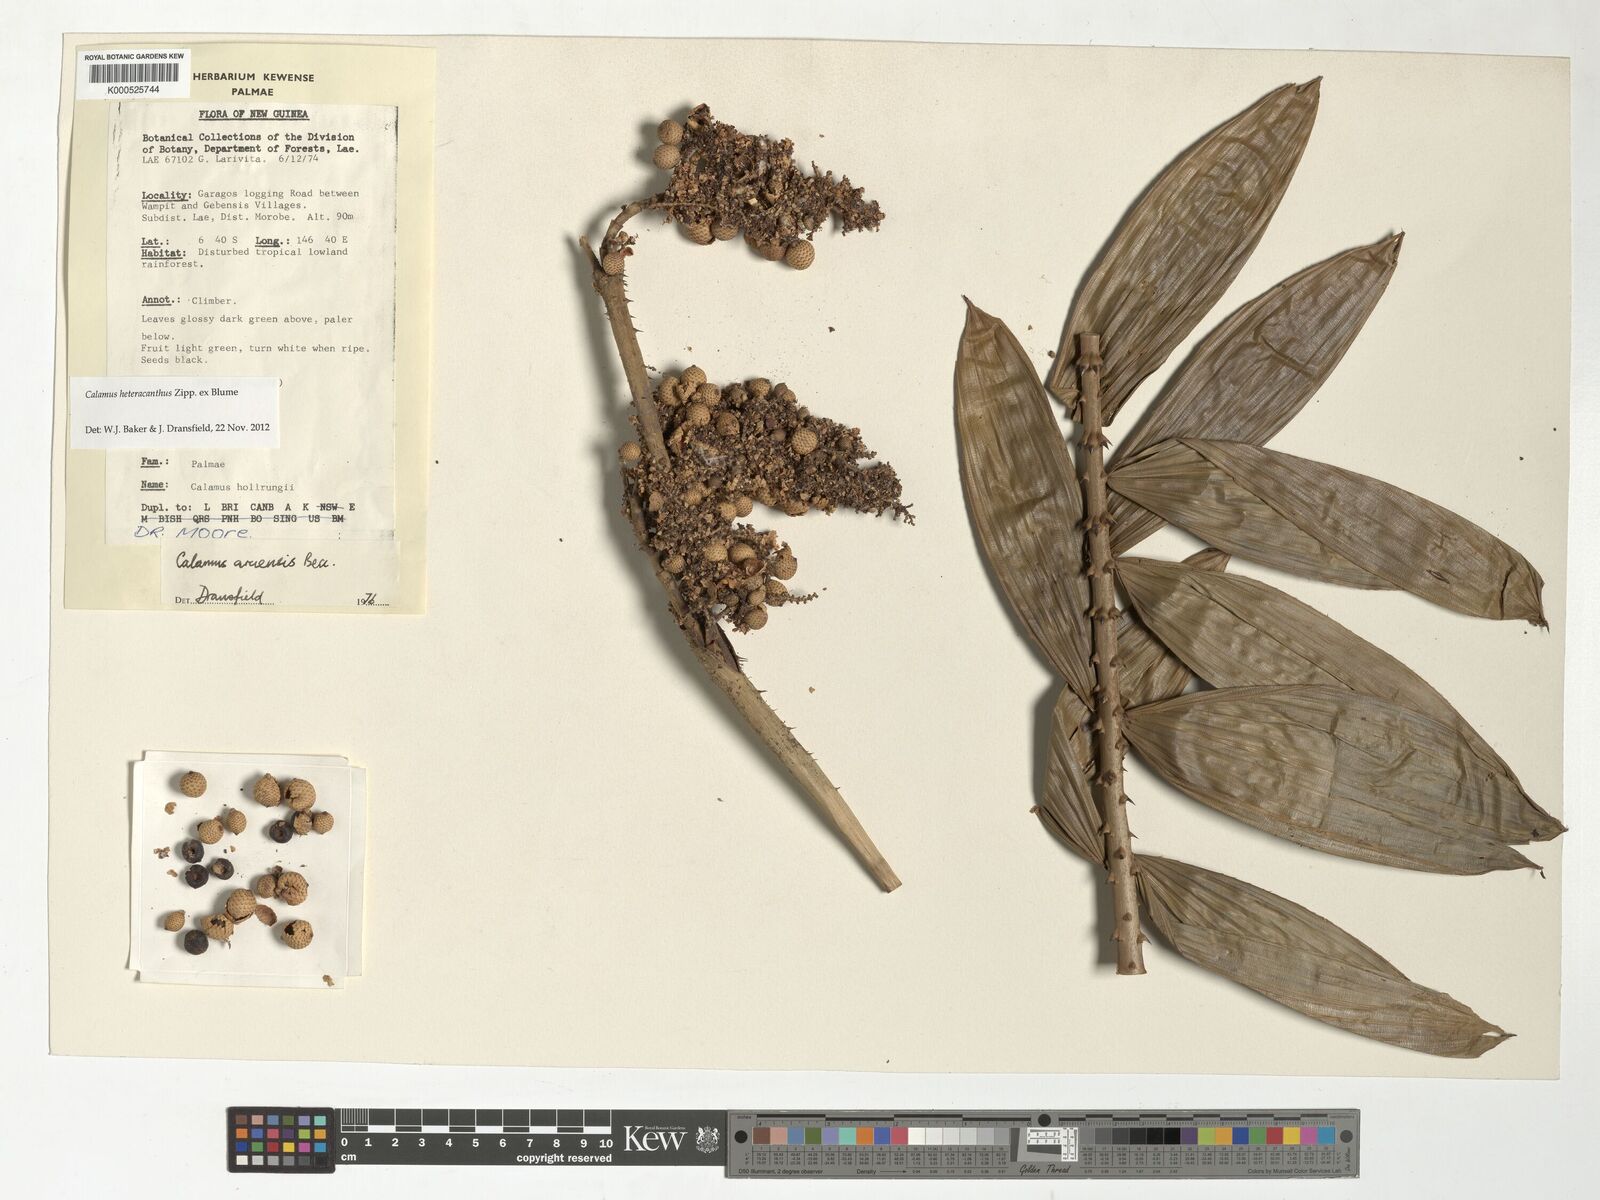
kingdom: Plantae
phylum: Tracheophyta
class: Liliopsida
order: Arecales
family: Arecaceae
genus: Calamus
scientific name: Calamus heteracanthus
